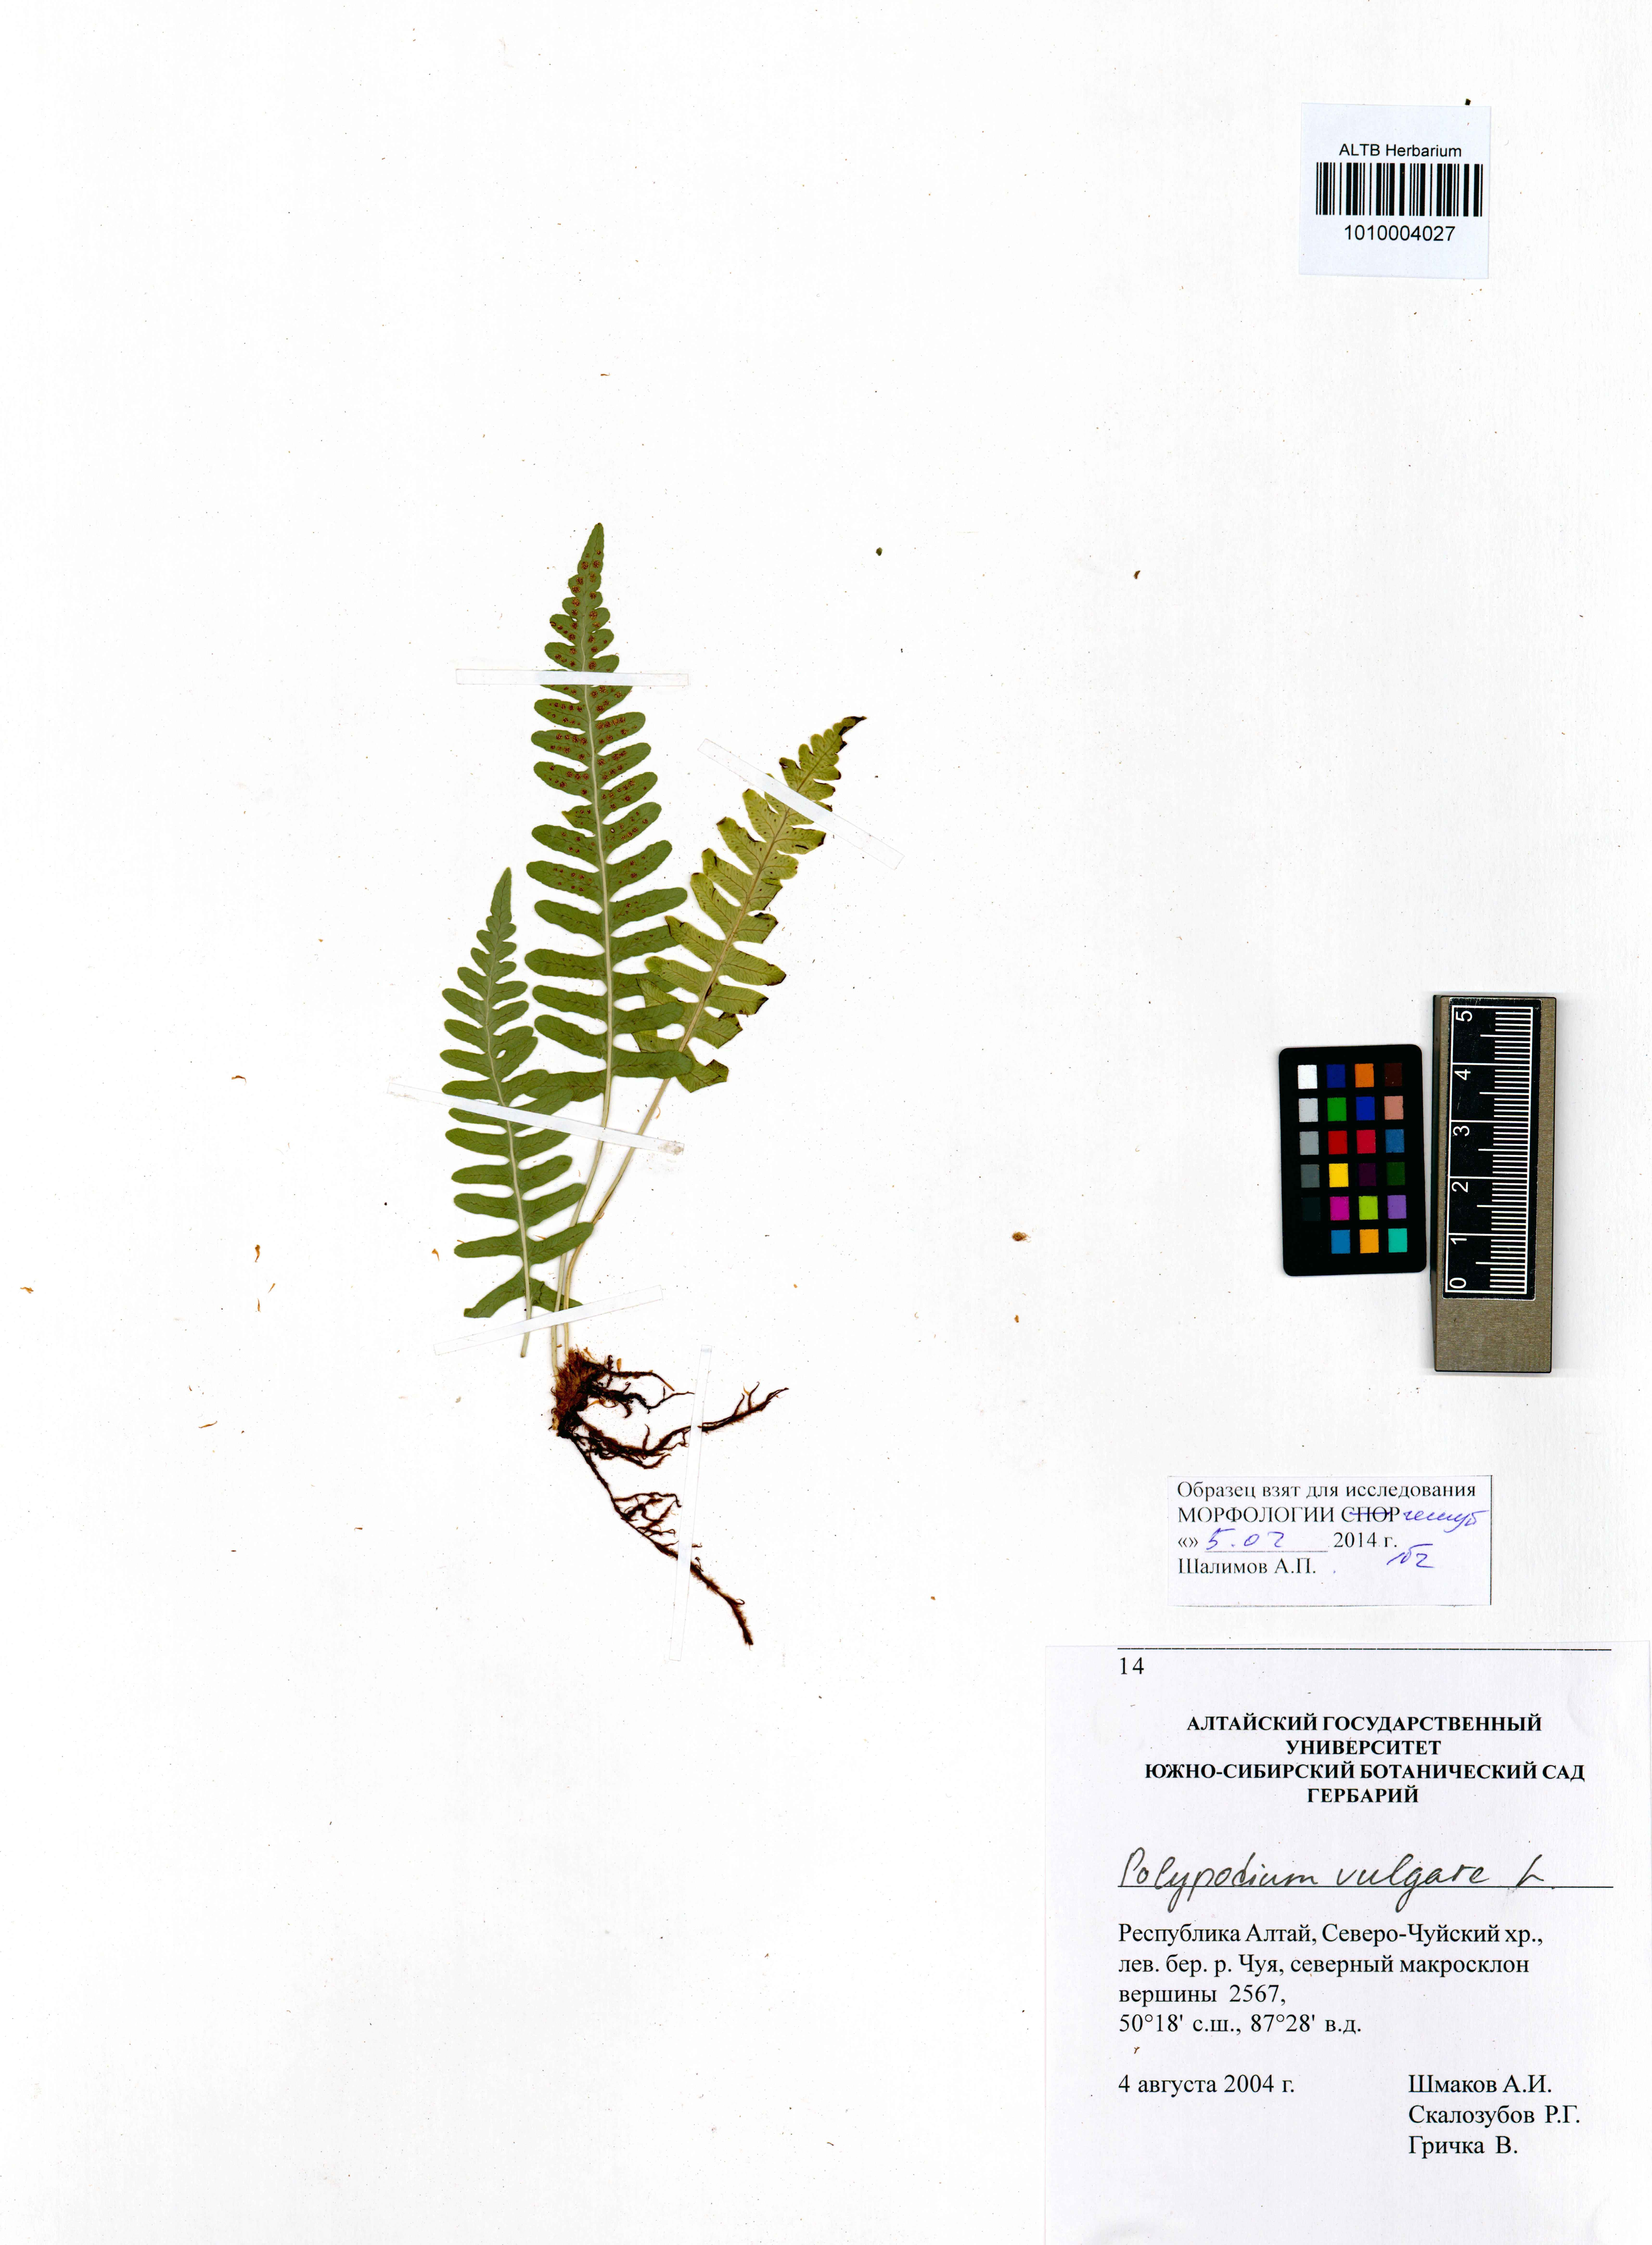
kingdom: Plantae
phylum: Tracheophyta
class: Polypodiopsida
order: Polypodiales
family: Polypodiaceae
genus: Polypodium
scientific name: Polypodium vulgare
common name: Common polypody
